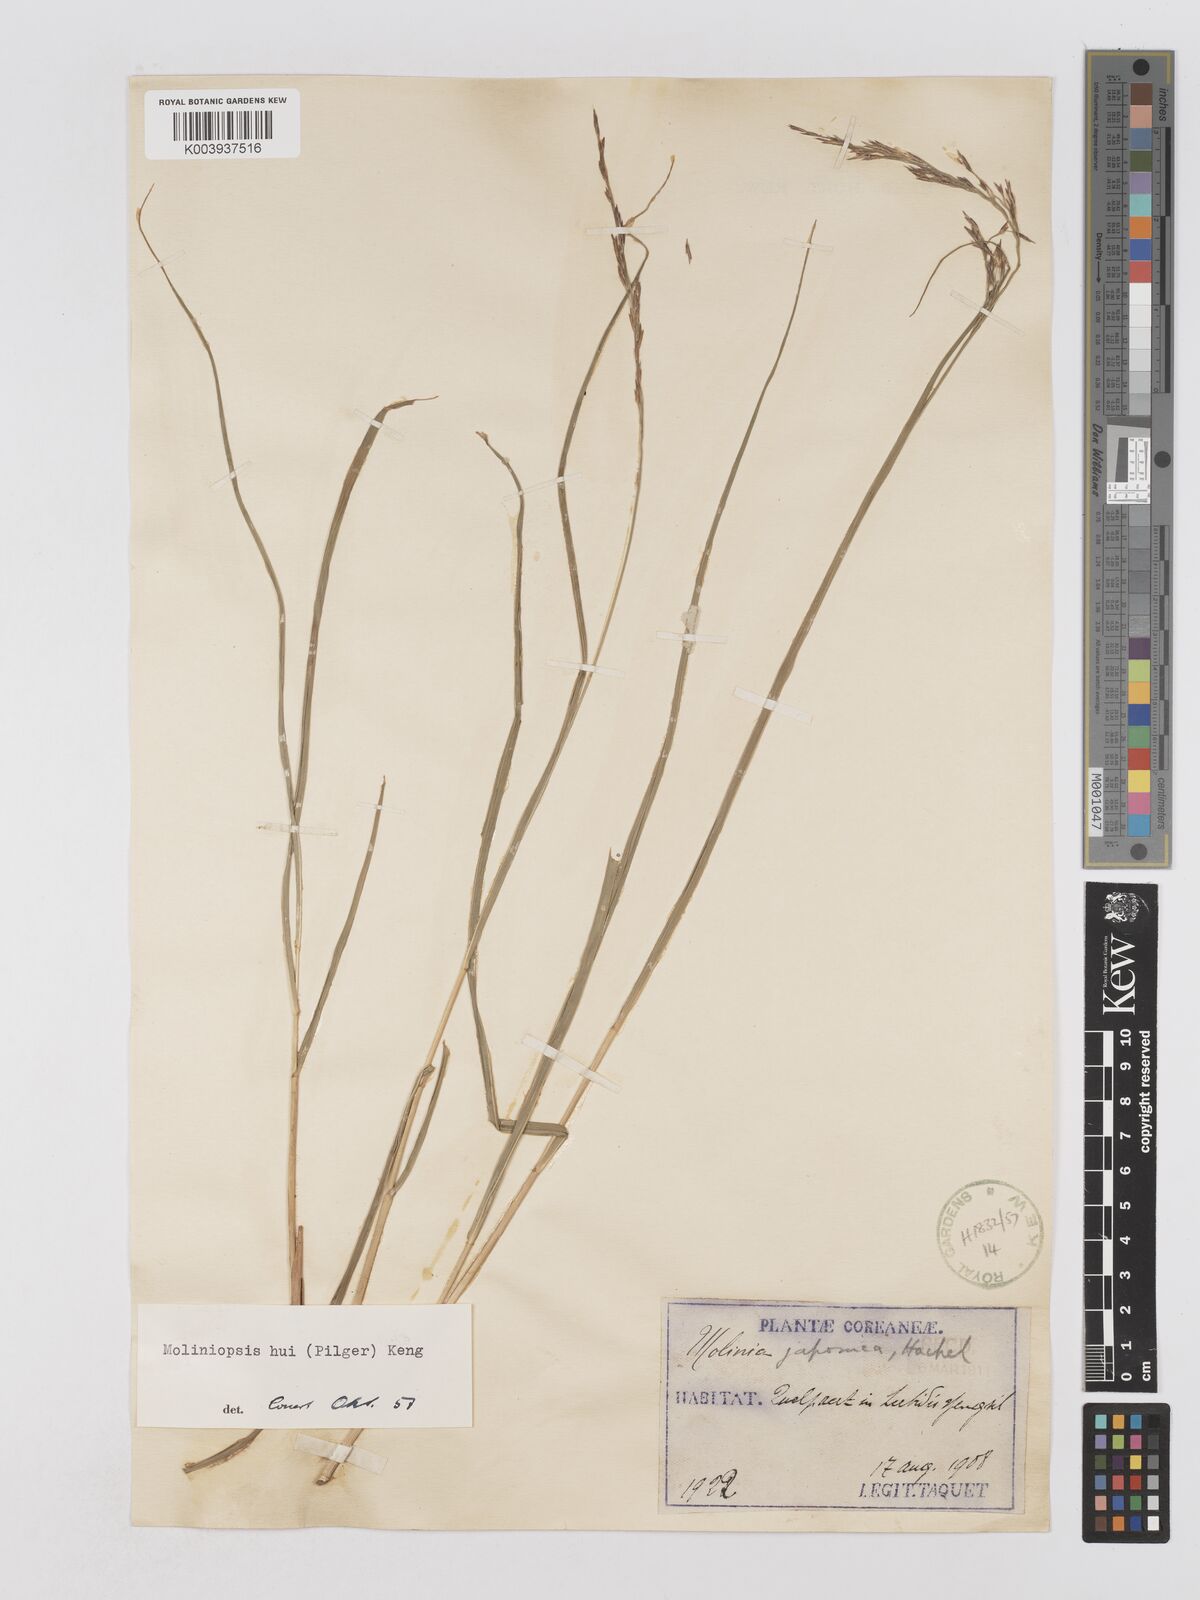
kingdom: Plantae
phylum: Tracheophyta
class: Liliopsida
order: Poales
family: Poaceae
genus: Moliniopsis
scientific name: Moliniopsis japonica
